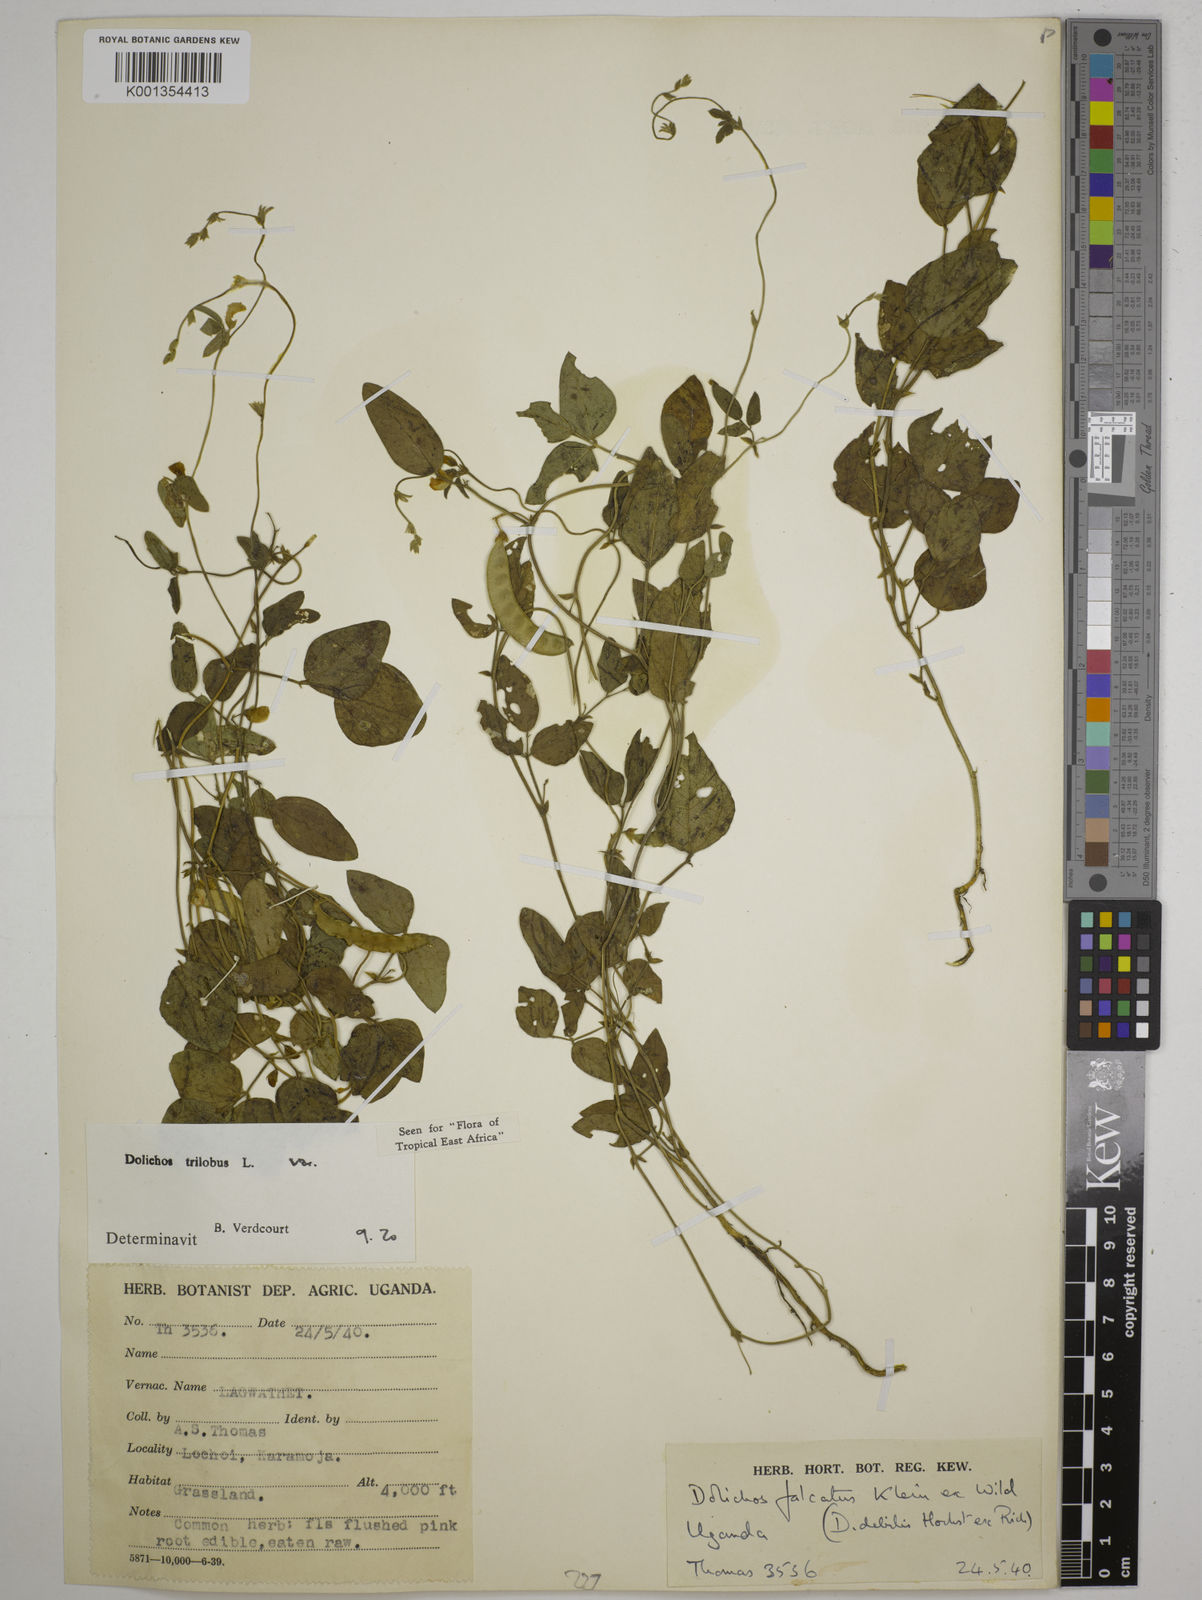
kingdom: Plantae
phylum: Tracheophyta
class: Magnoliopsida
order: Fabales
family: Fabaceae
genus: Dolichos
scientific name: Dolichos
